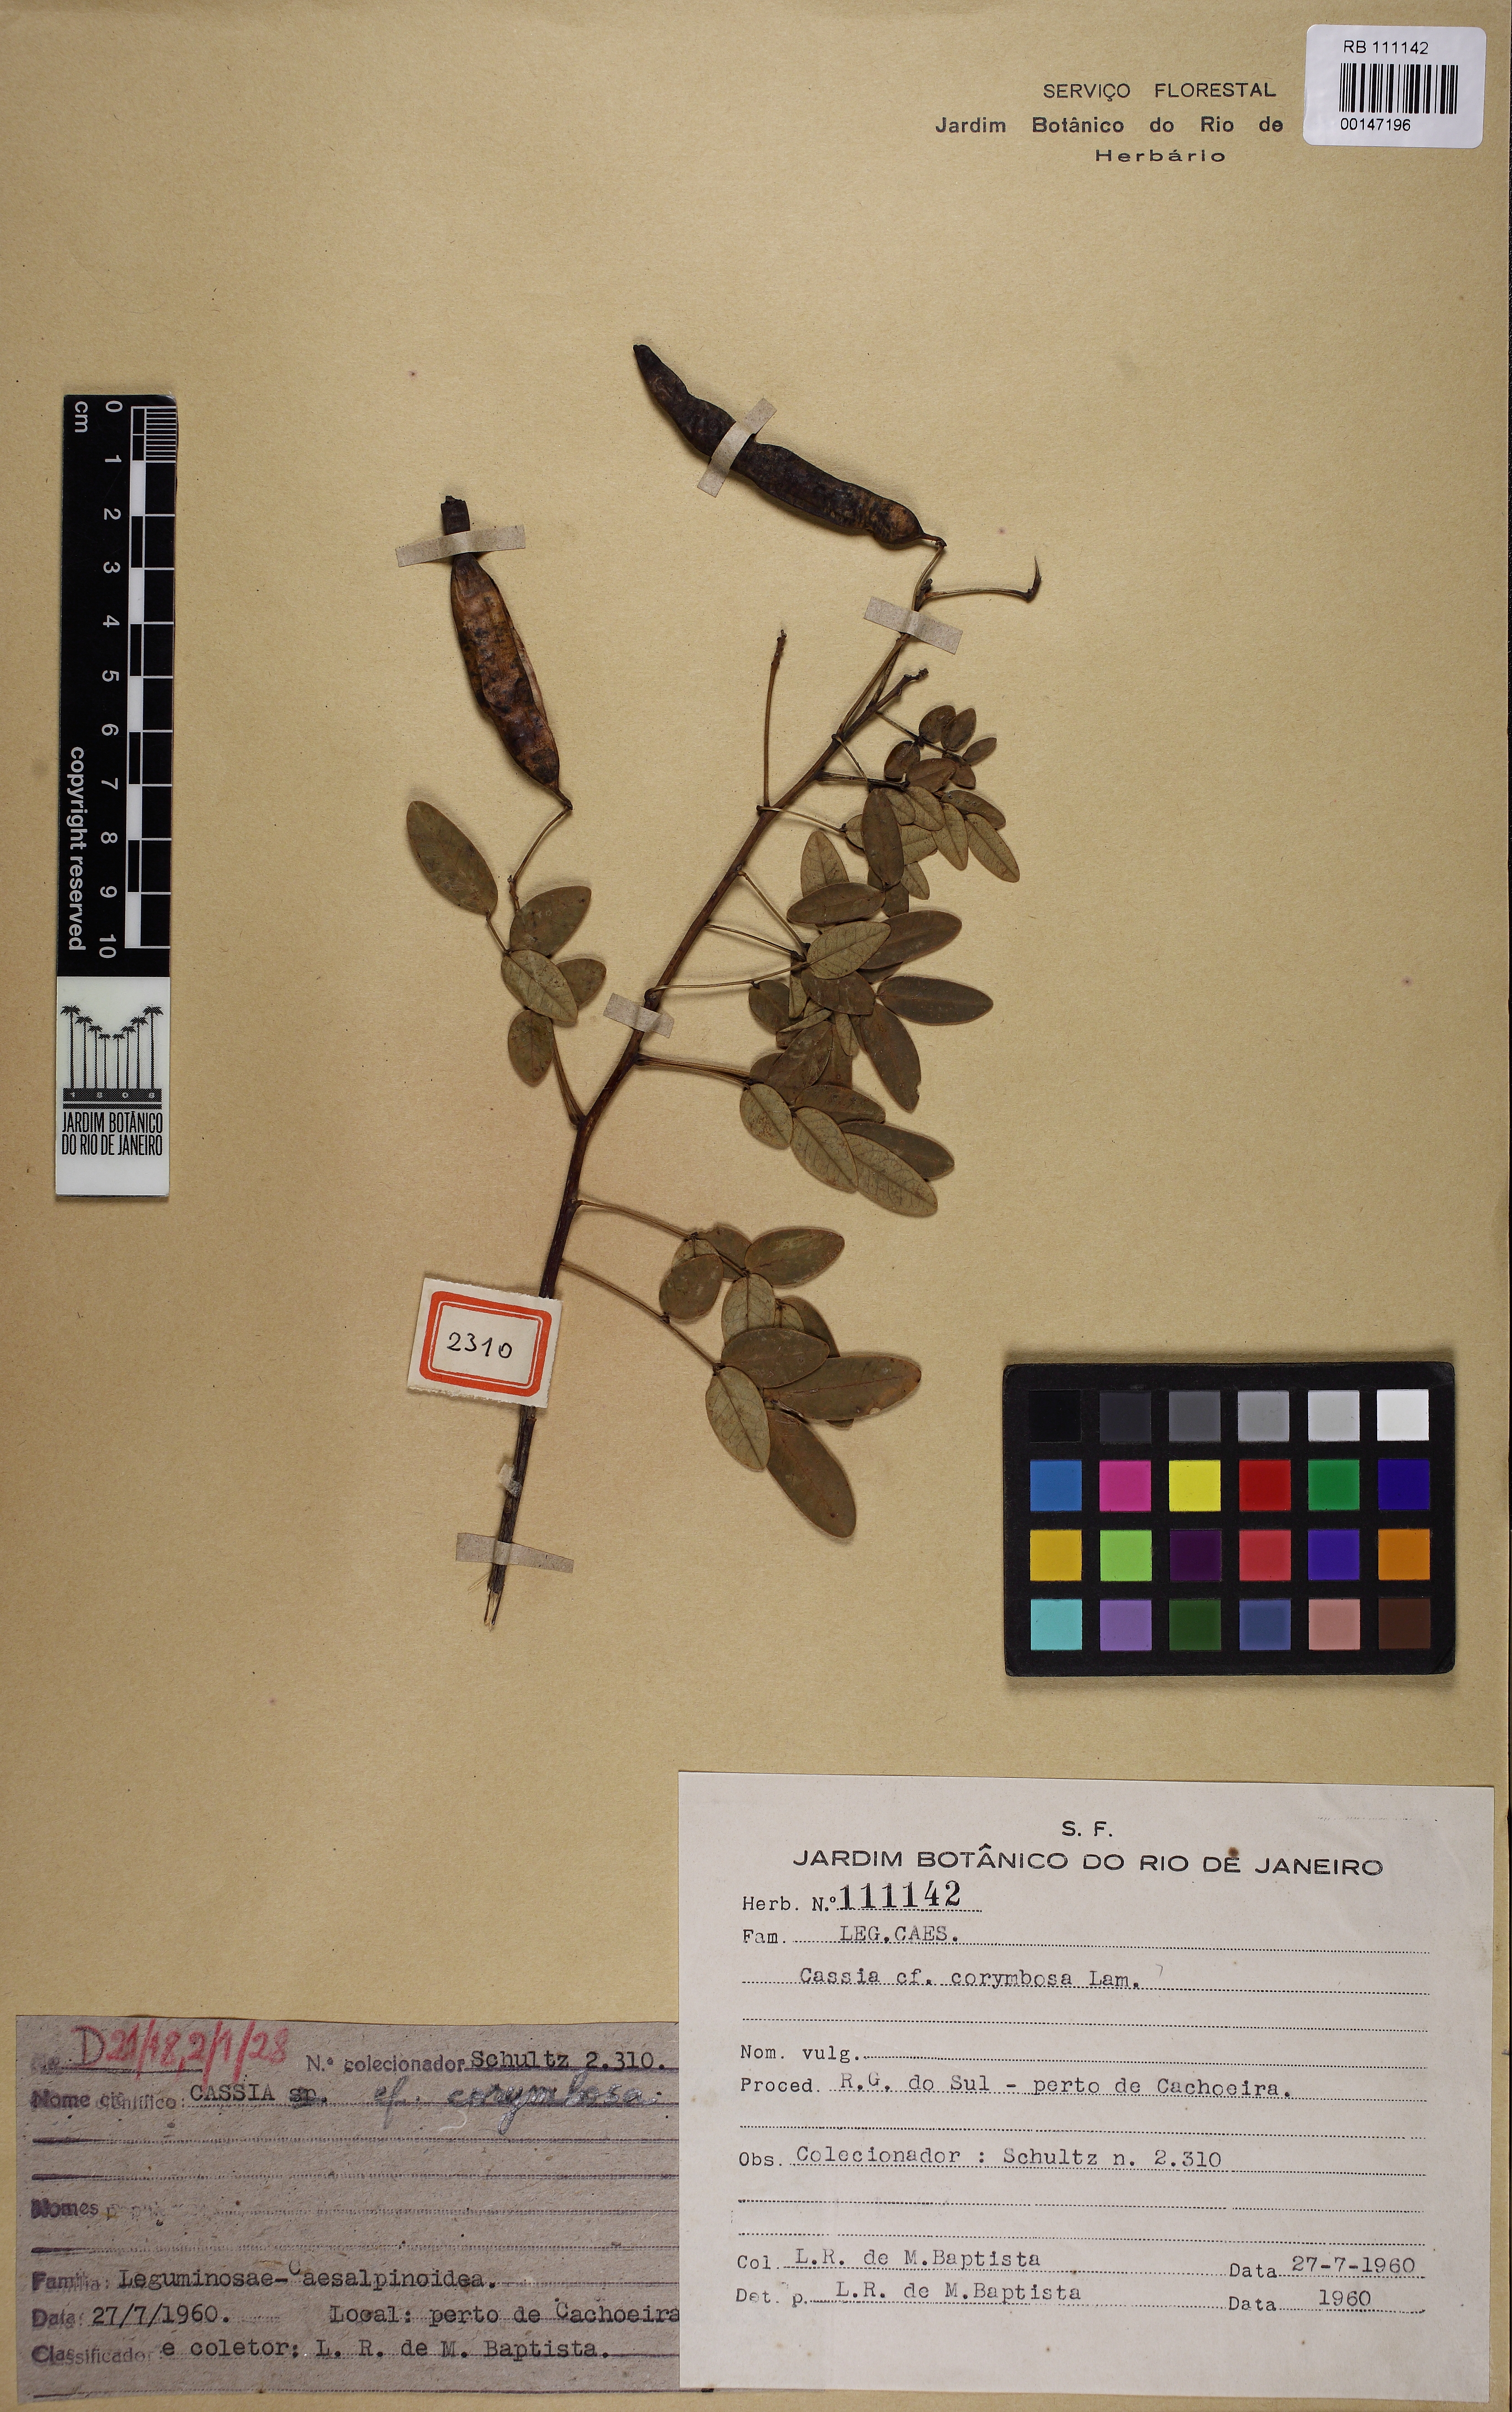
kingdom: Plantae
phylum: Tracheophyta
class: Magnoliopsida
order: Fabales
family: Fabaceae
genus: Senna
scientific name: Senna corymbosa
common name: Argentine senna
